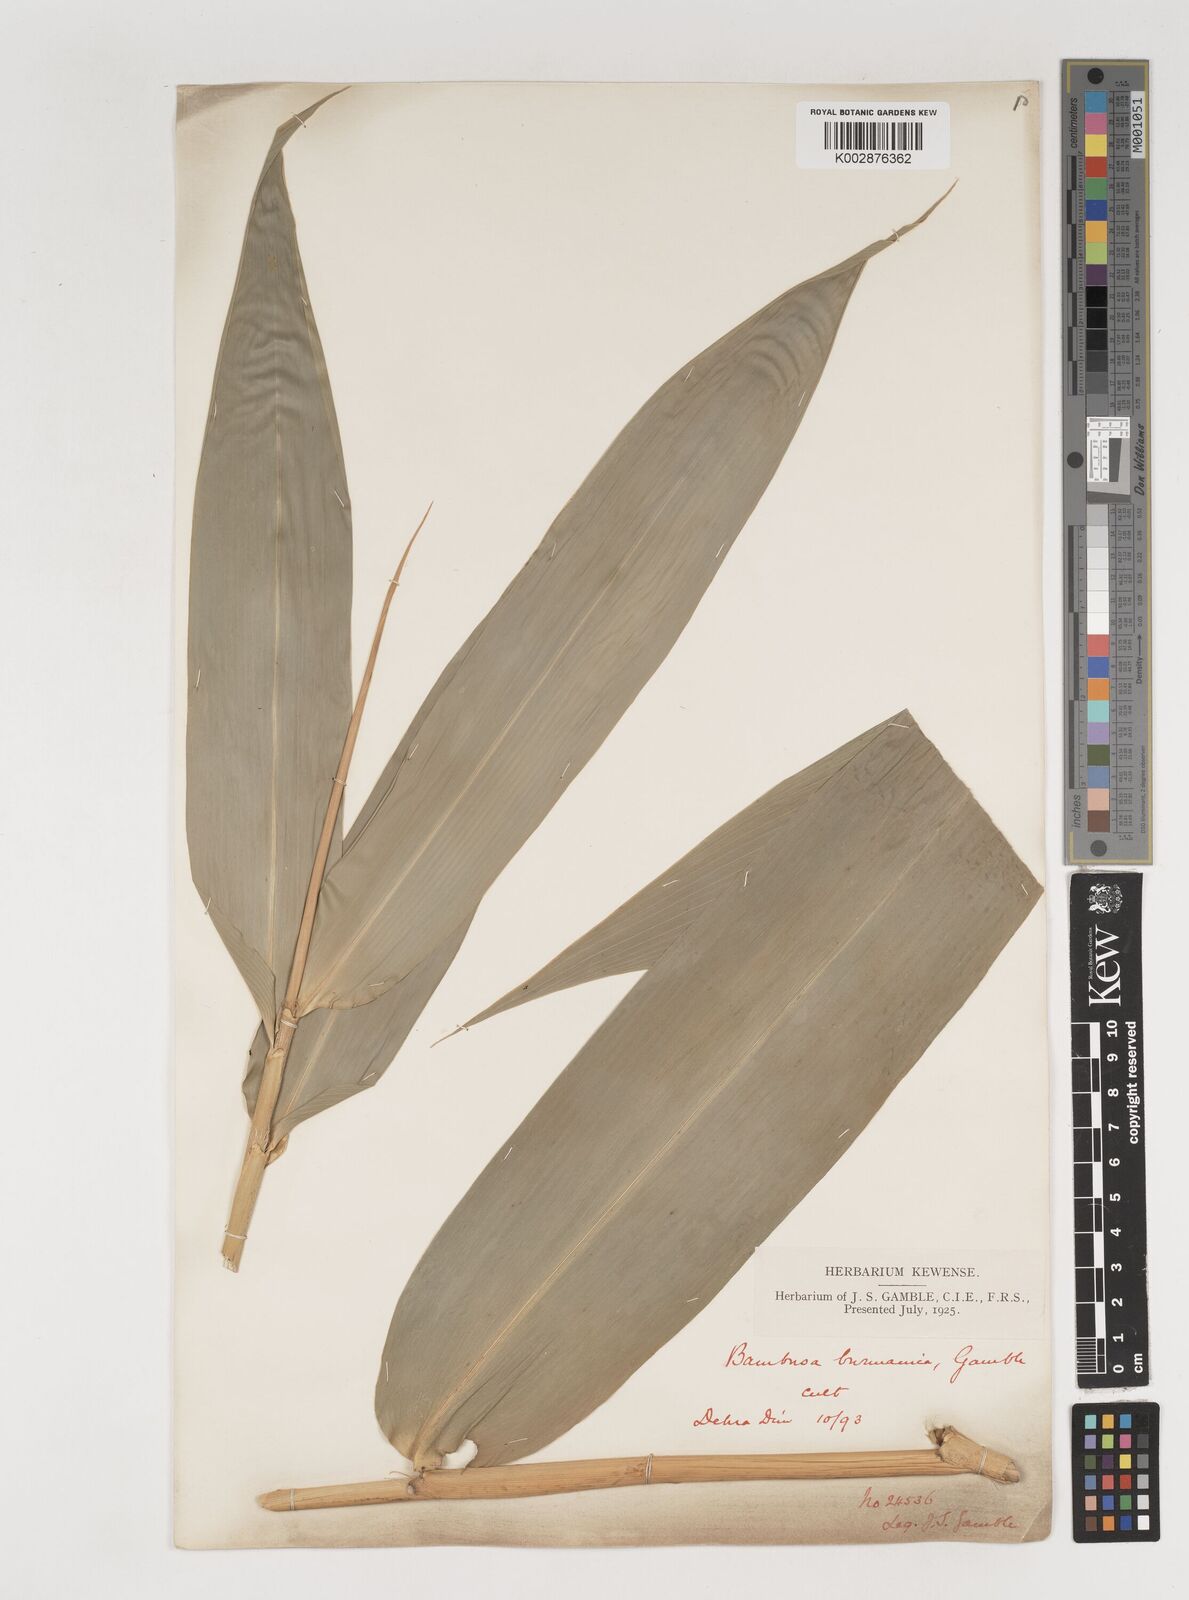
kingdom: Plantae
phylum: Tracheophyta
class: Liliopsida
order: Poales
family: Poaceae
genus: Bambusa
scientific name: Bambusa burmanica
